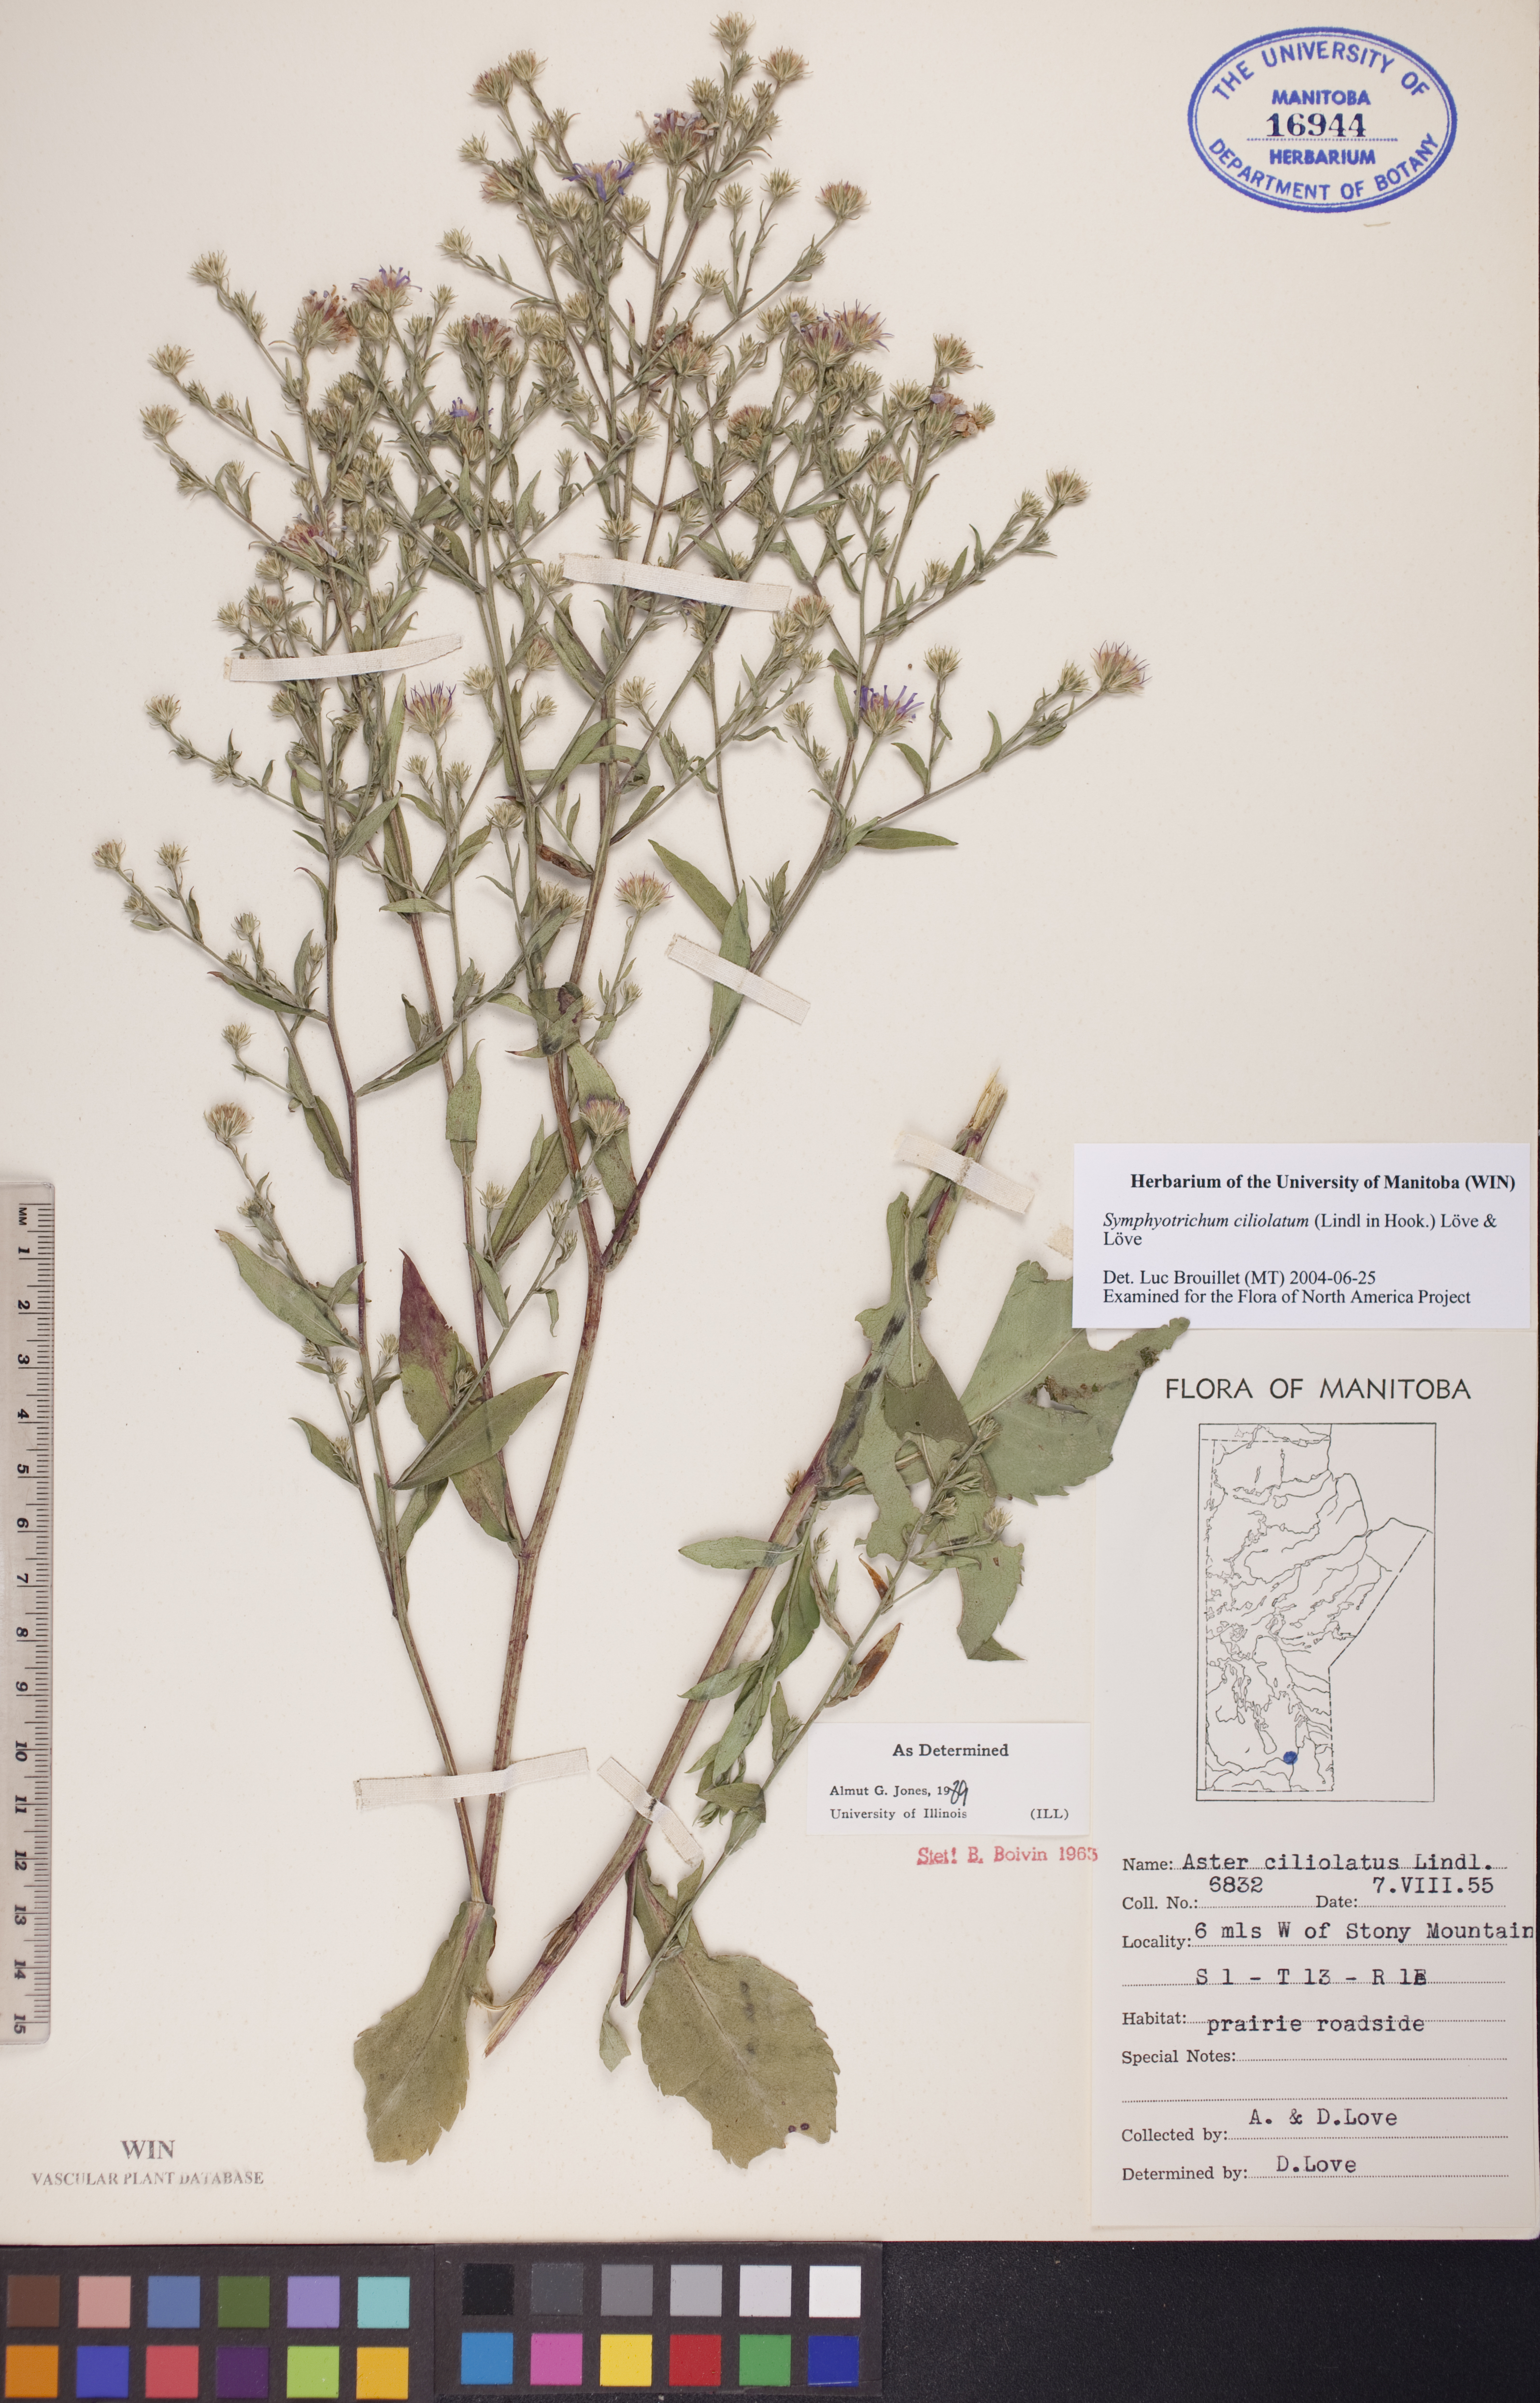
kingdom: Plantae
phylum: Tracheophyta
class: Magnoliopsida
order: Asterales
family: Asteraceae
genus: Symphyotrichum
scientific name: Symphyotrichum ciliolatum
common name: Fringed blue aster
